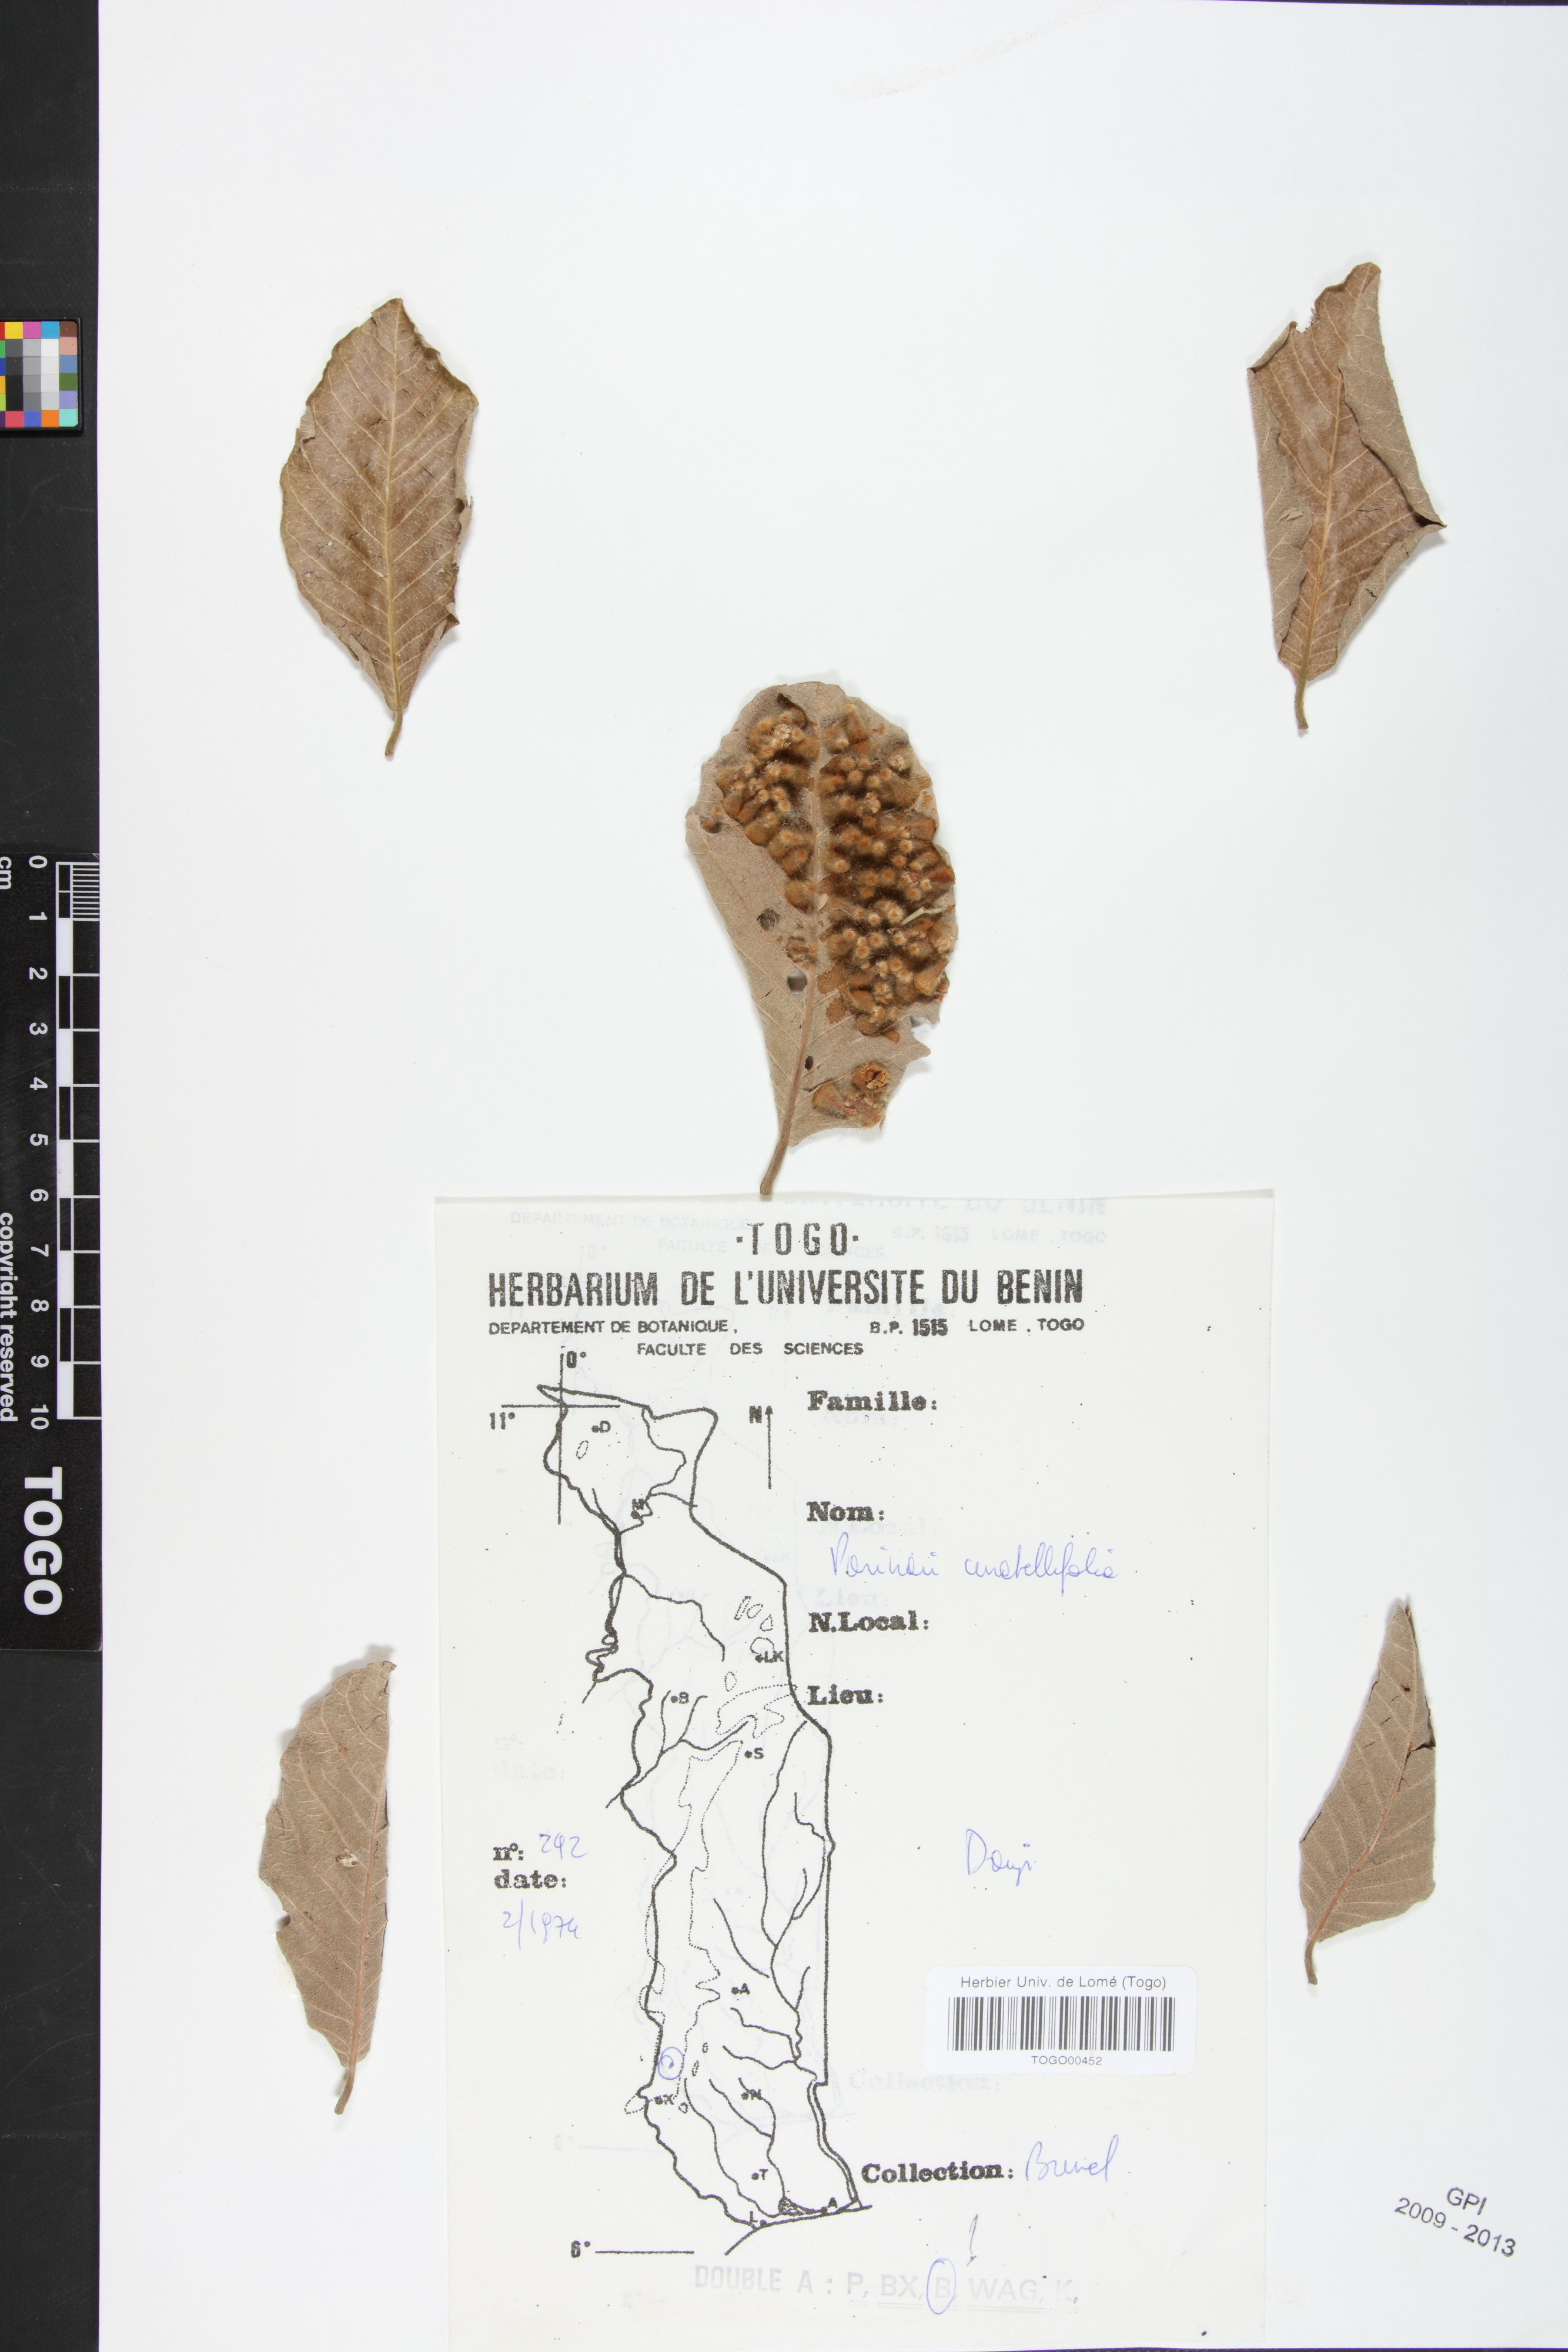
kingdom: Plantae
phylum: Tracheophyta
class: Magnoliopsida
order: Malpighiales
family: Chrysobalanaceae
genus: Parinari
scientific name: Parinari curatellifolia
